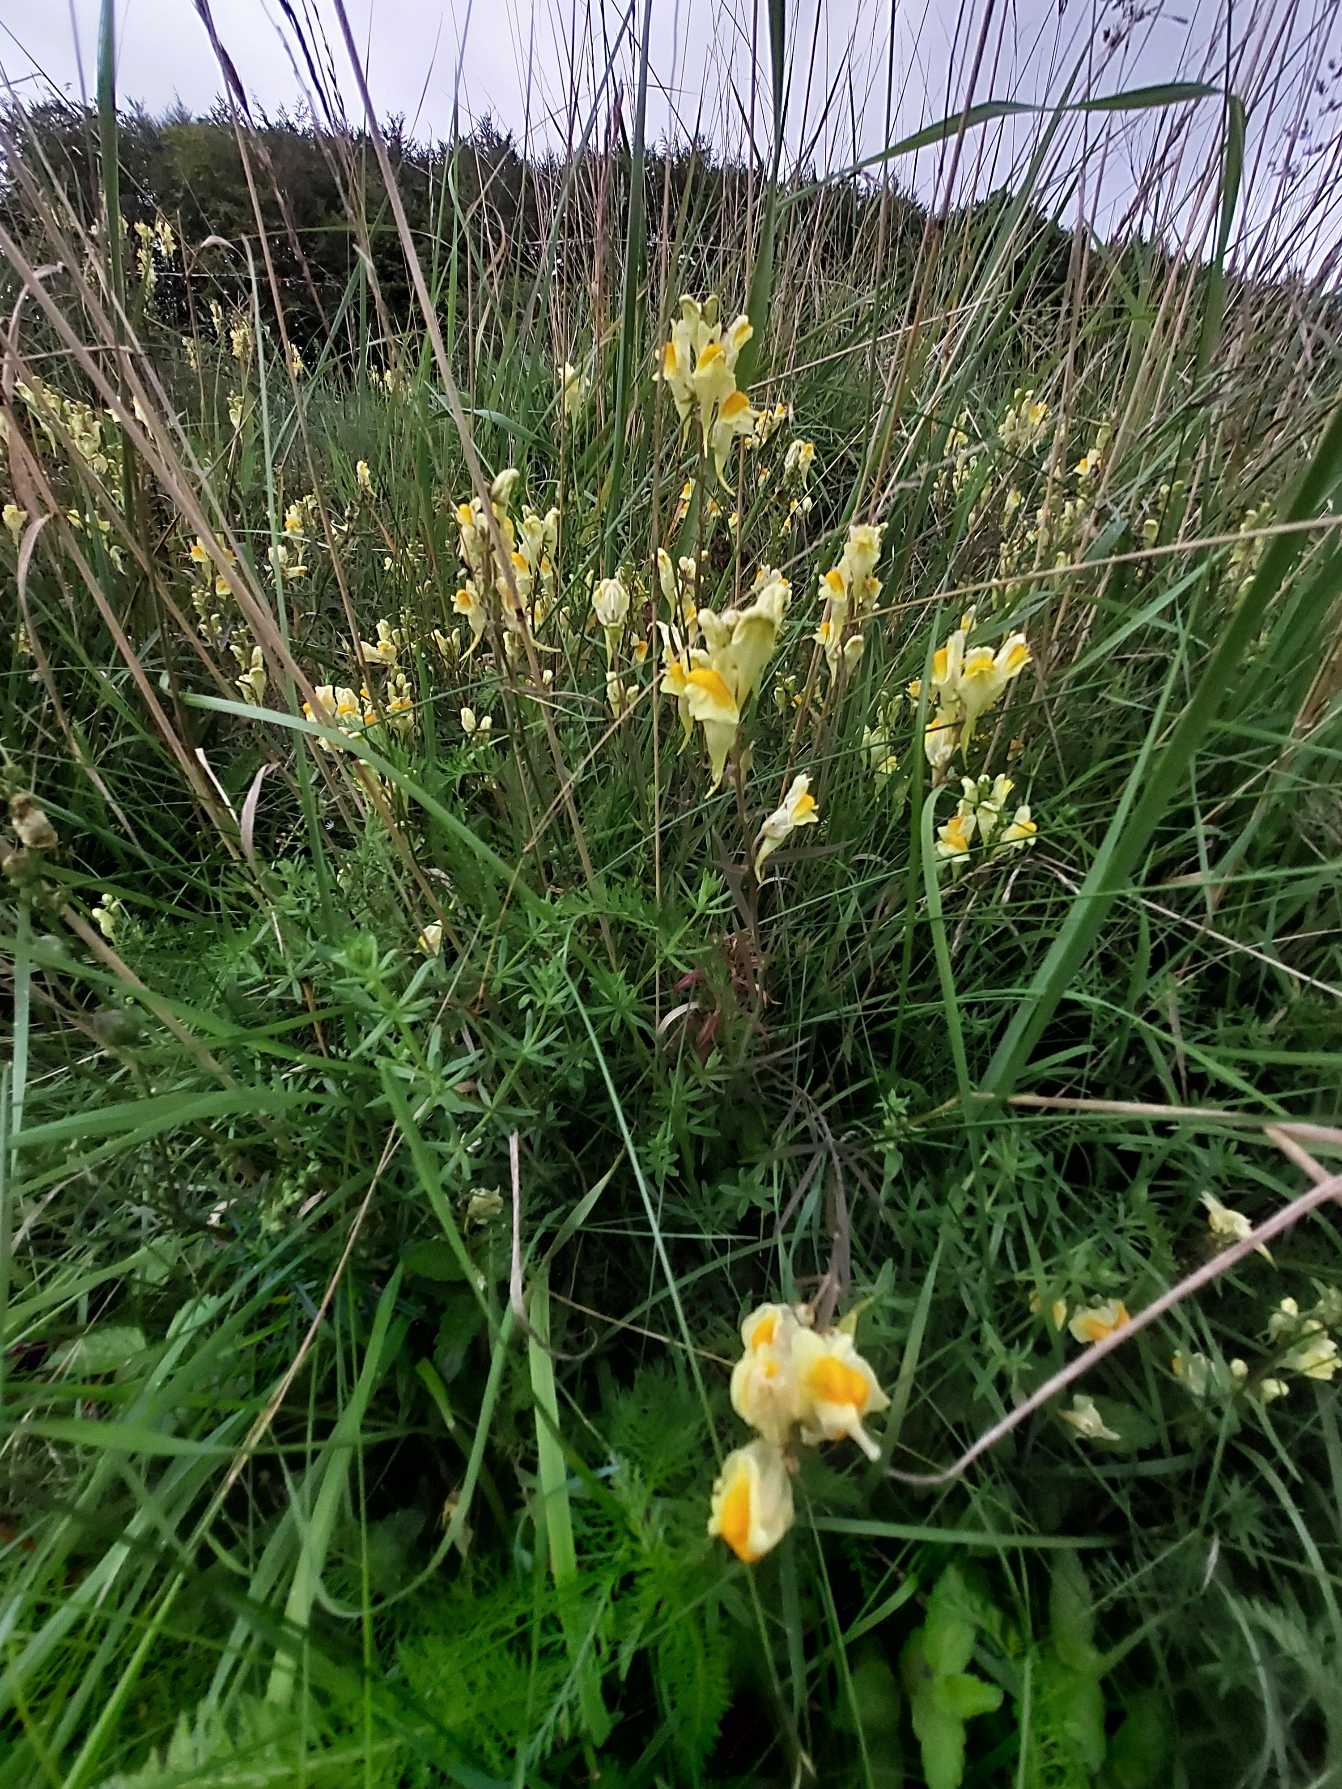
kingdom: Plantae
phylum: Tracheophyta
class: Magnoliopsida
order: Lamiales
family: Plantaginaceae
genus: Linaria
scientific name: Linaria vulgaris
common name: Almindelig torskemund
